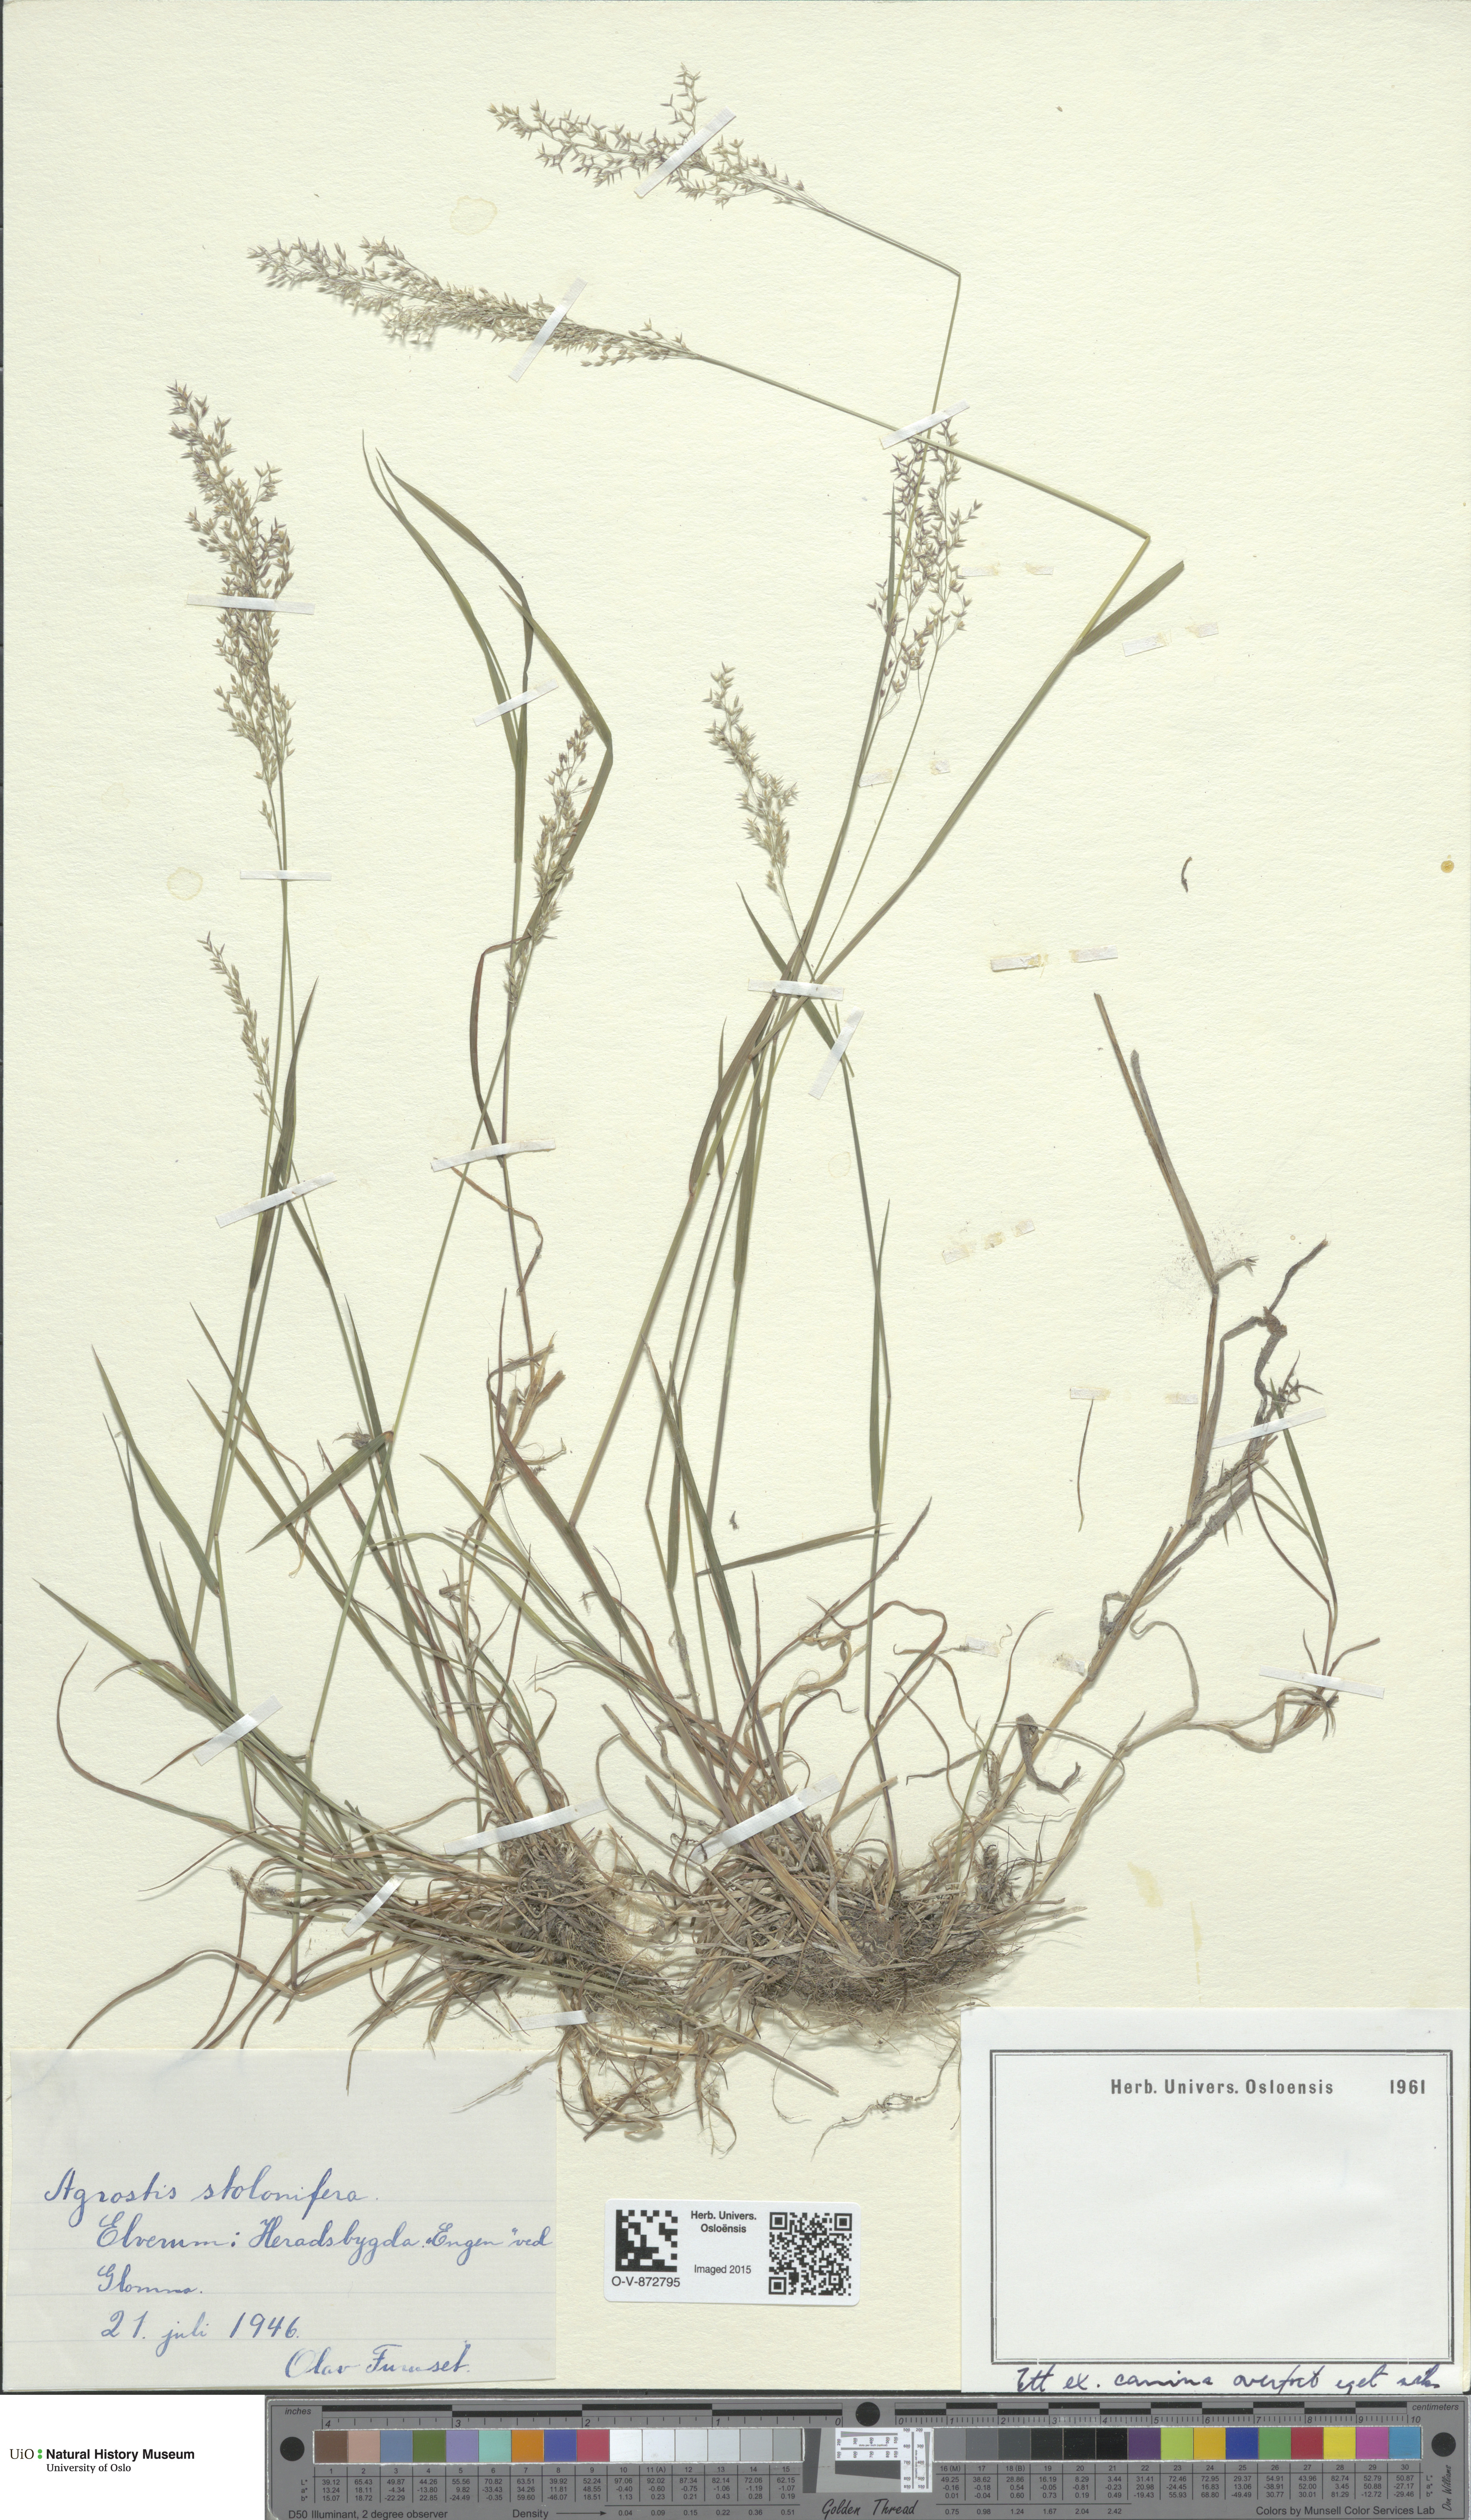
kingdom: Plantae
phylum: Tracheophyta
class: Liliopsida
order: Poales
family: Poaceae
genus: Agrostis
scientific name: Agrostis stolonifera
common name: Creeping bentgrass
